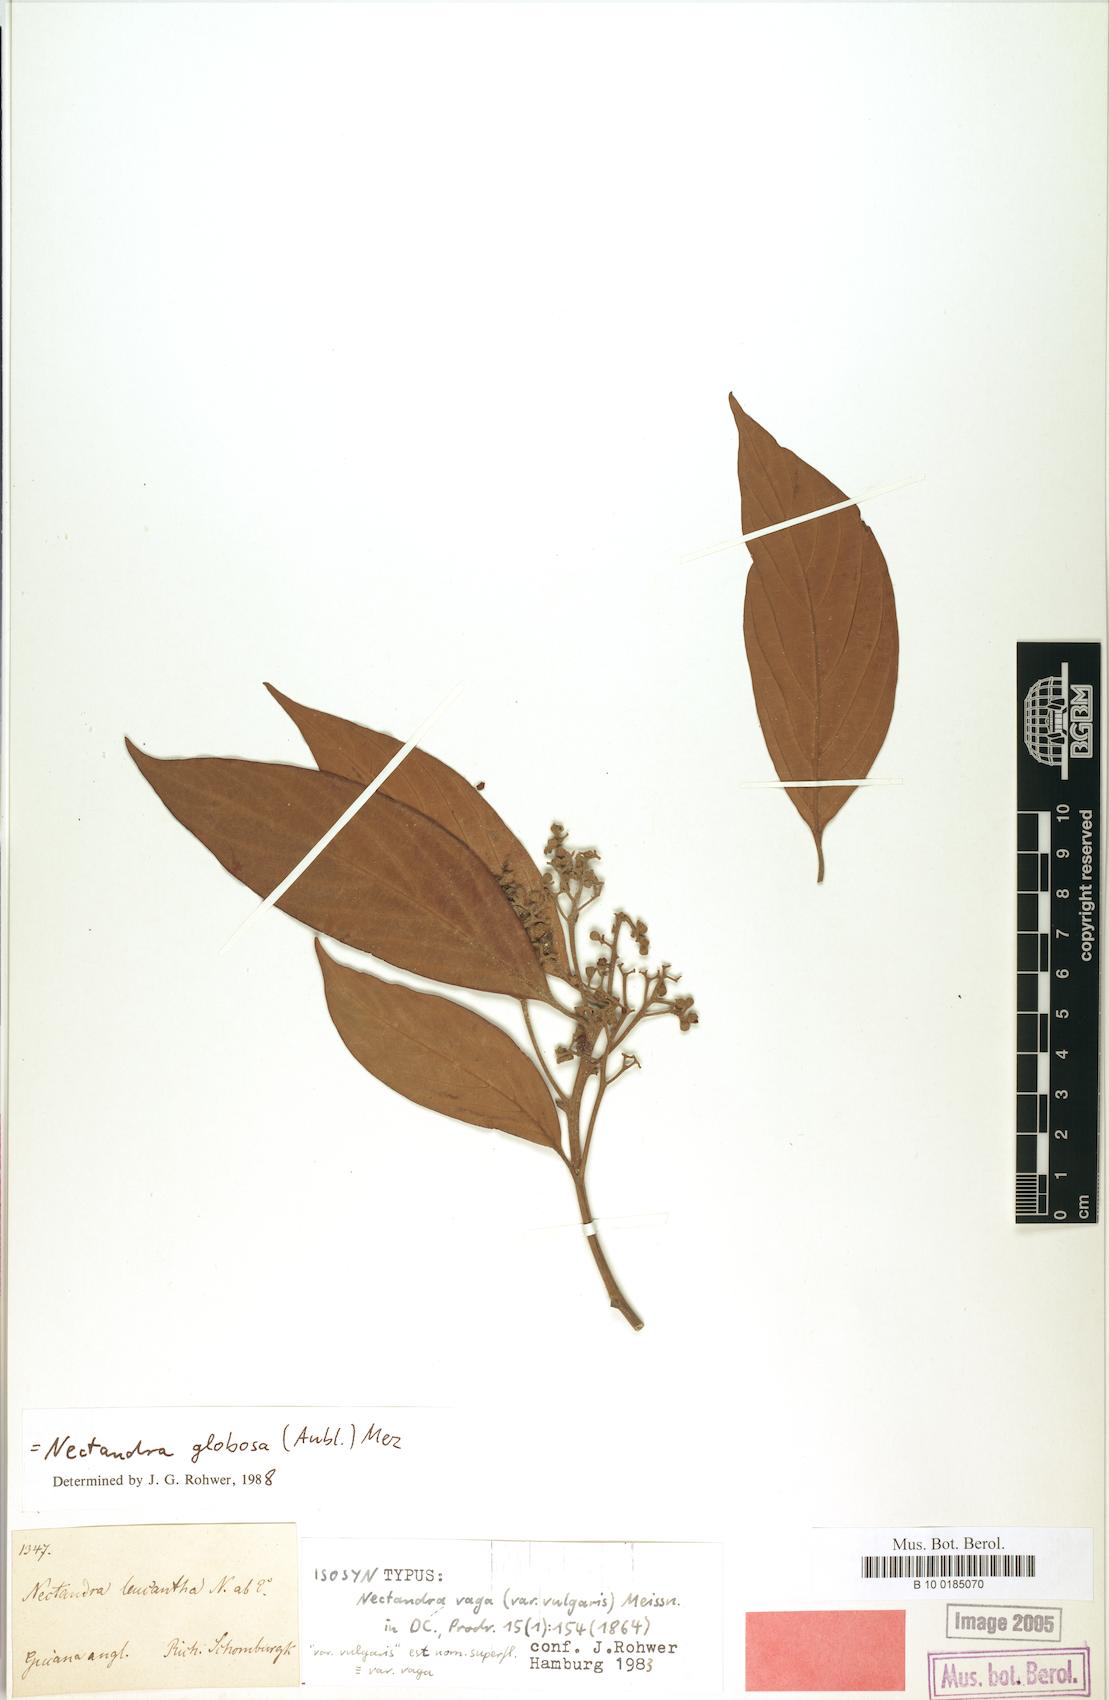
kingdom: Plantae
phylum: Tracheophyta
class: Magnoliopsida
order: Laurales
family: Lauraceae
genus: Nectandra
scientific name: Nectandra globosa
